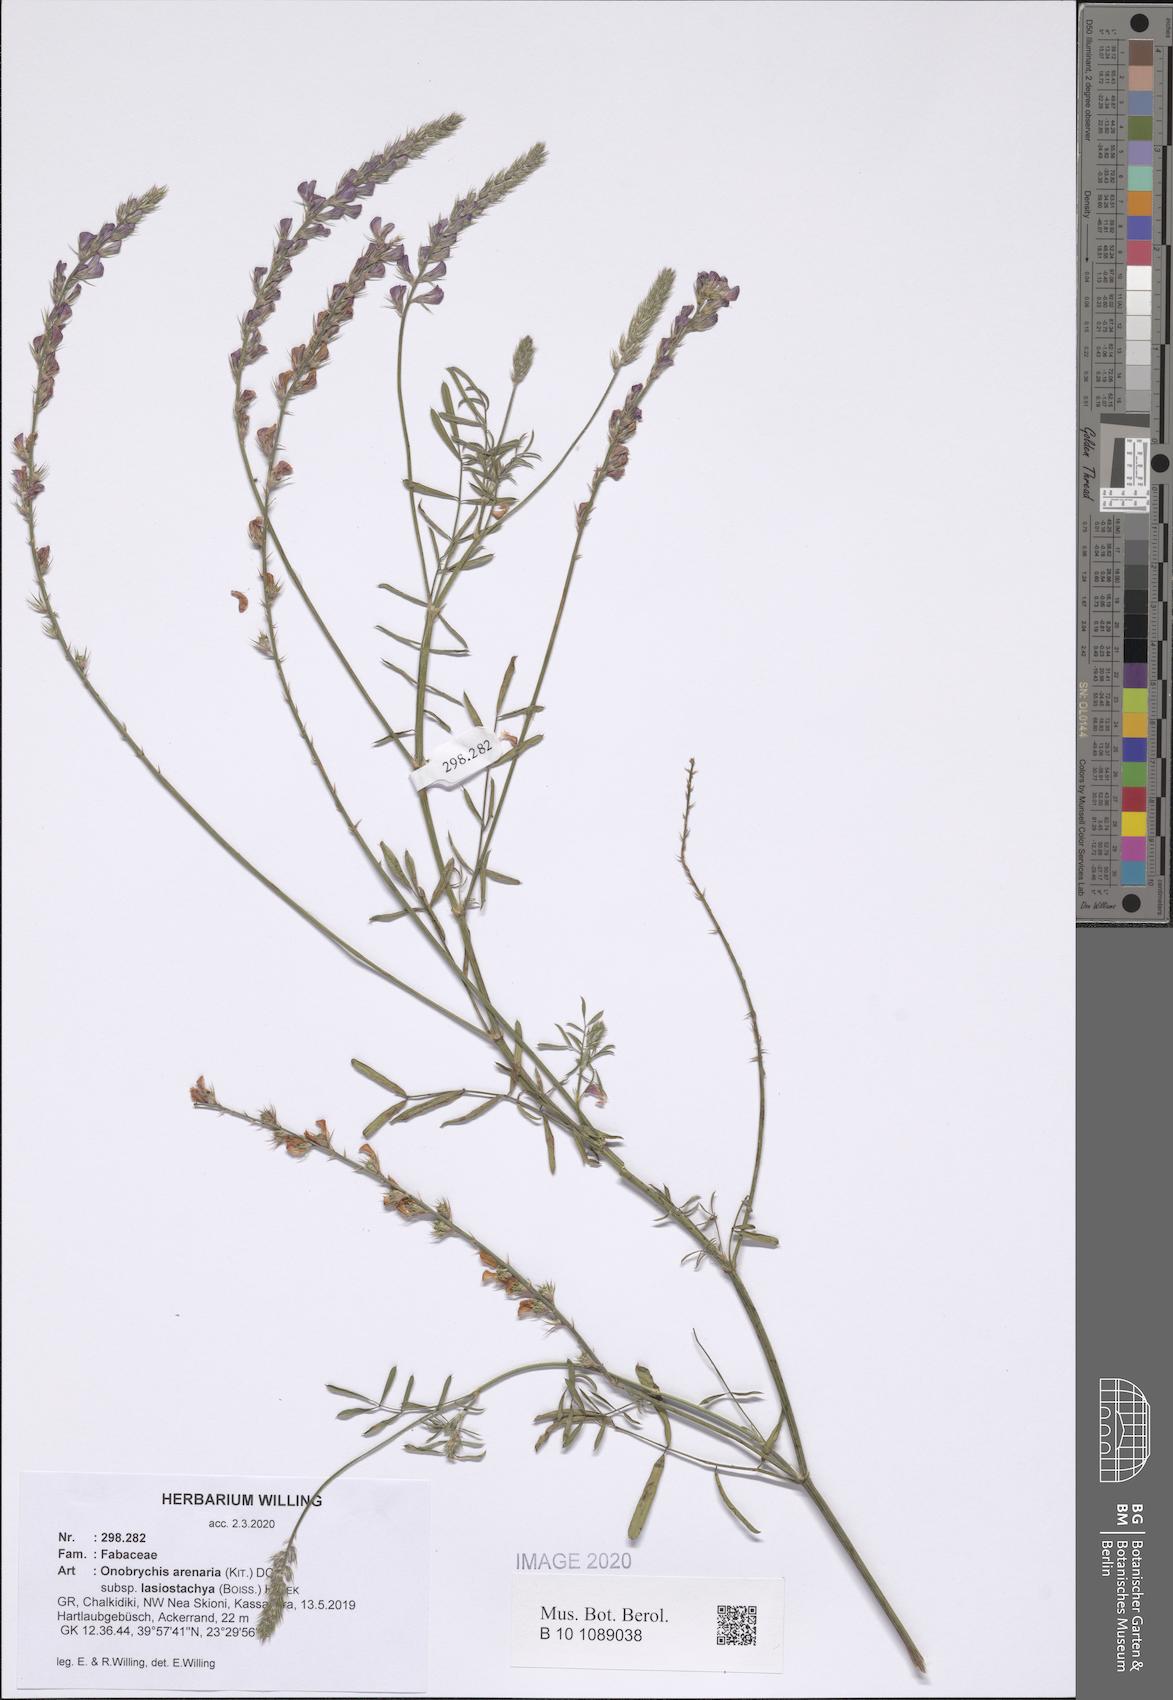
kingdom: Plantae
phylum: Tracheophyta
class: Magnoliopsida
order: Fabales
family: Fabaceae
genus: Onobrychis
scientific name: Onobrychis arenaria
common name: Sand esparcet
